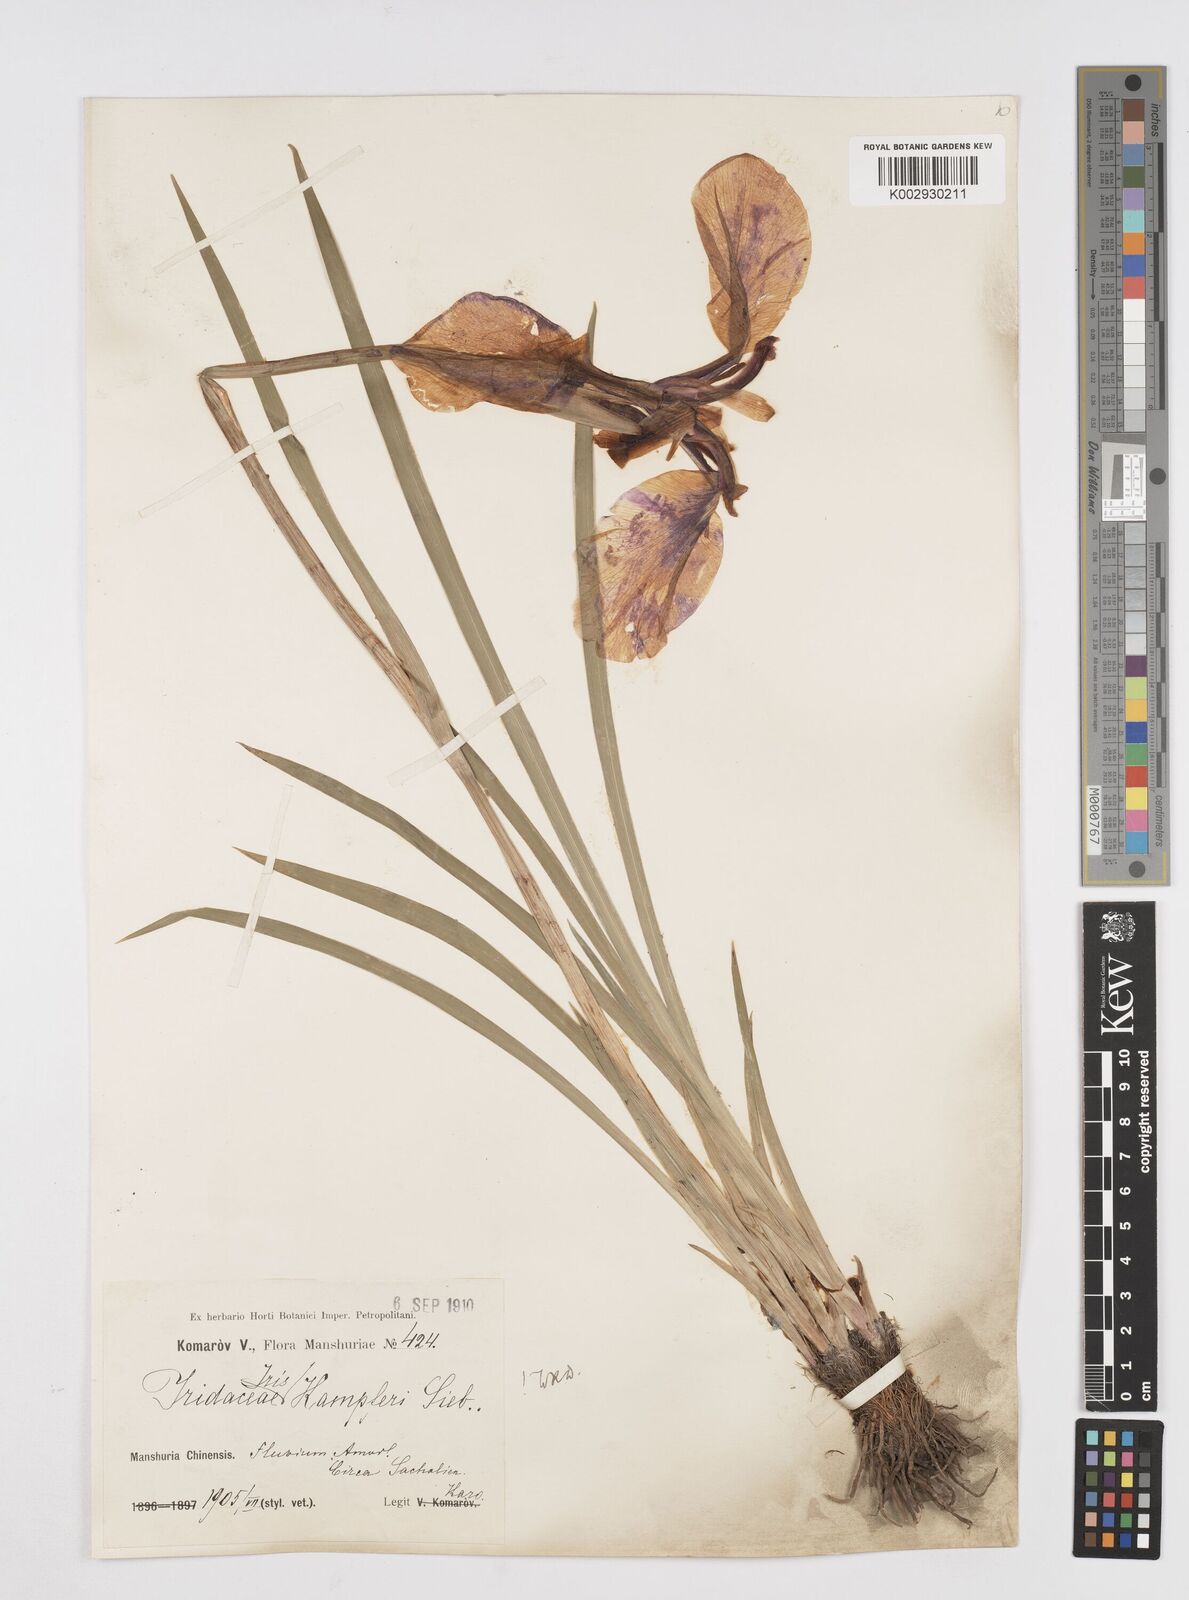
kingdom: Plantae
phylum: Tracheophyta
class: Liliopsida
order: Asparagales
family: Iridaceae
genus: Iris
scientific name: Iris ensata
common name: Beaked iris
